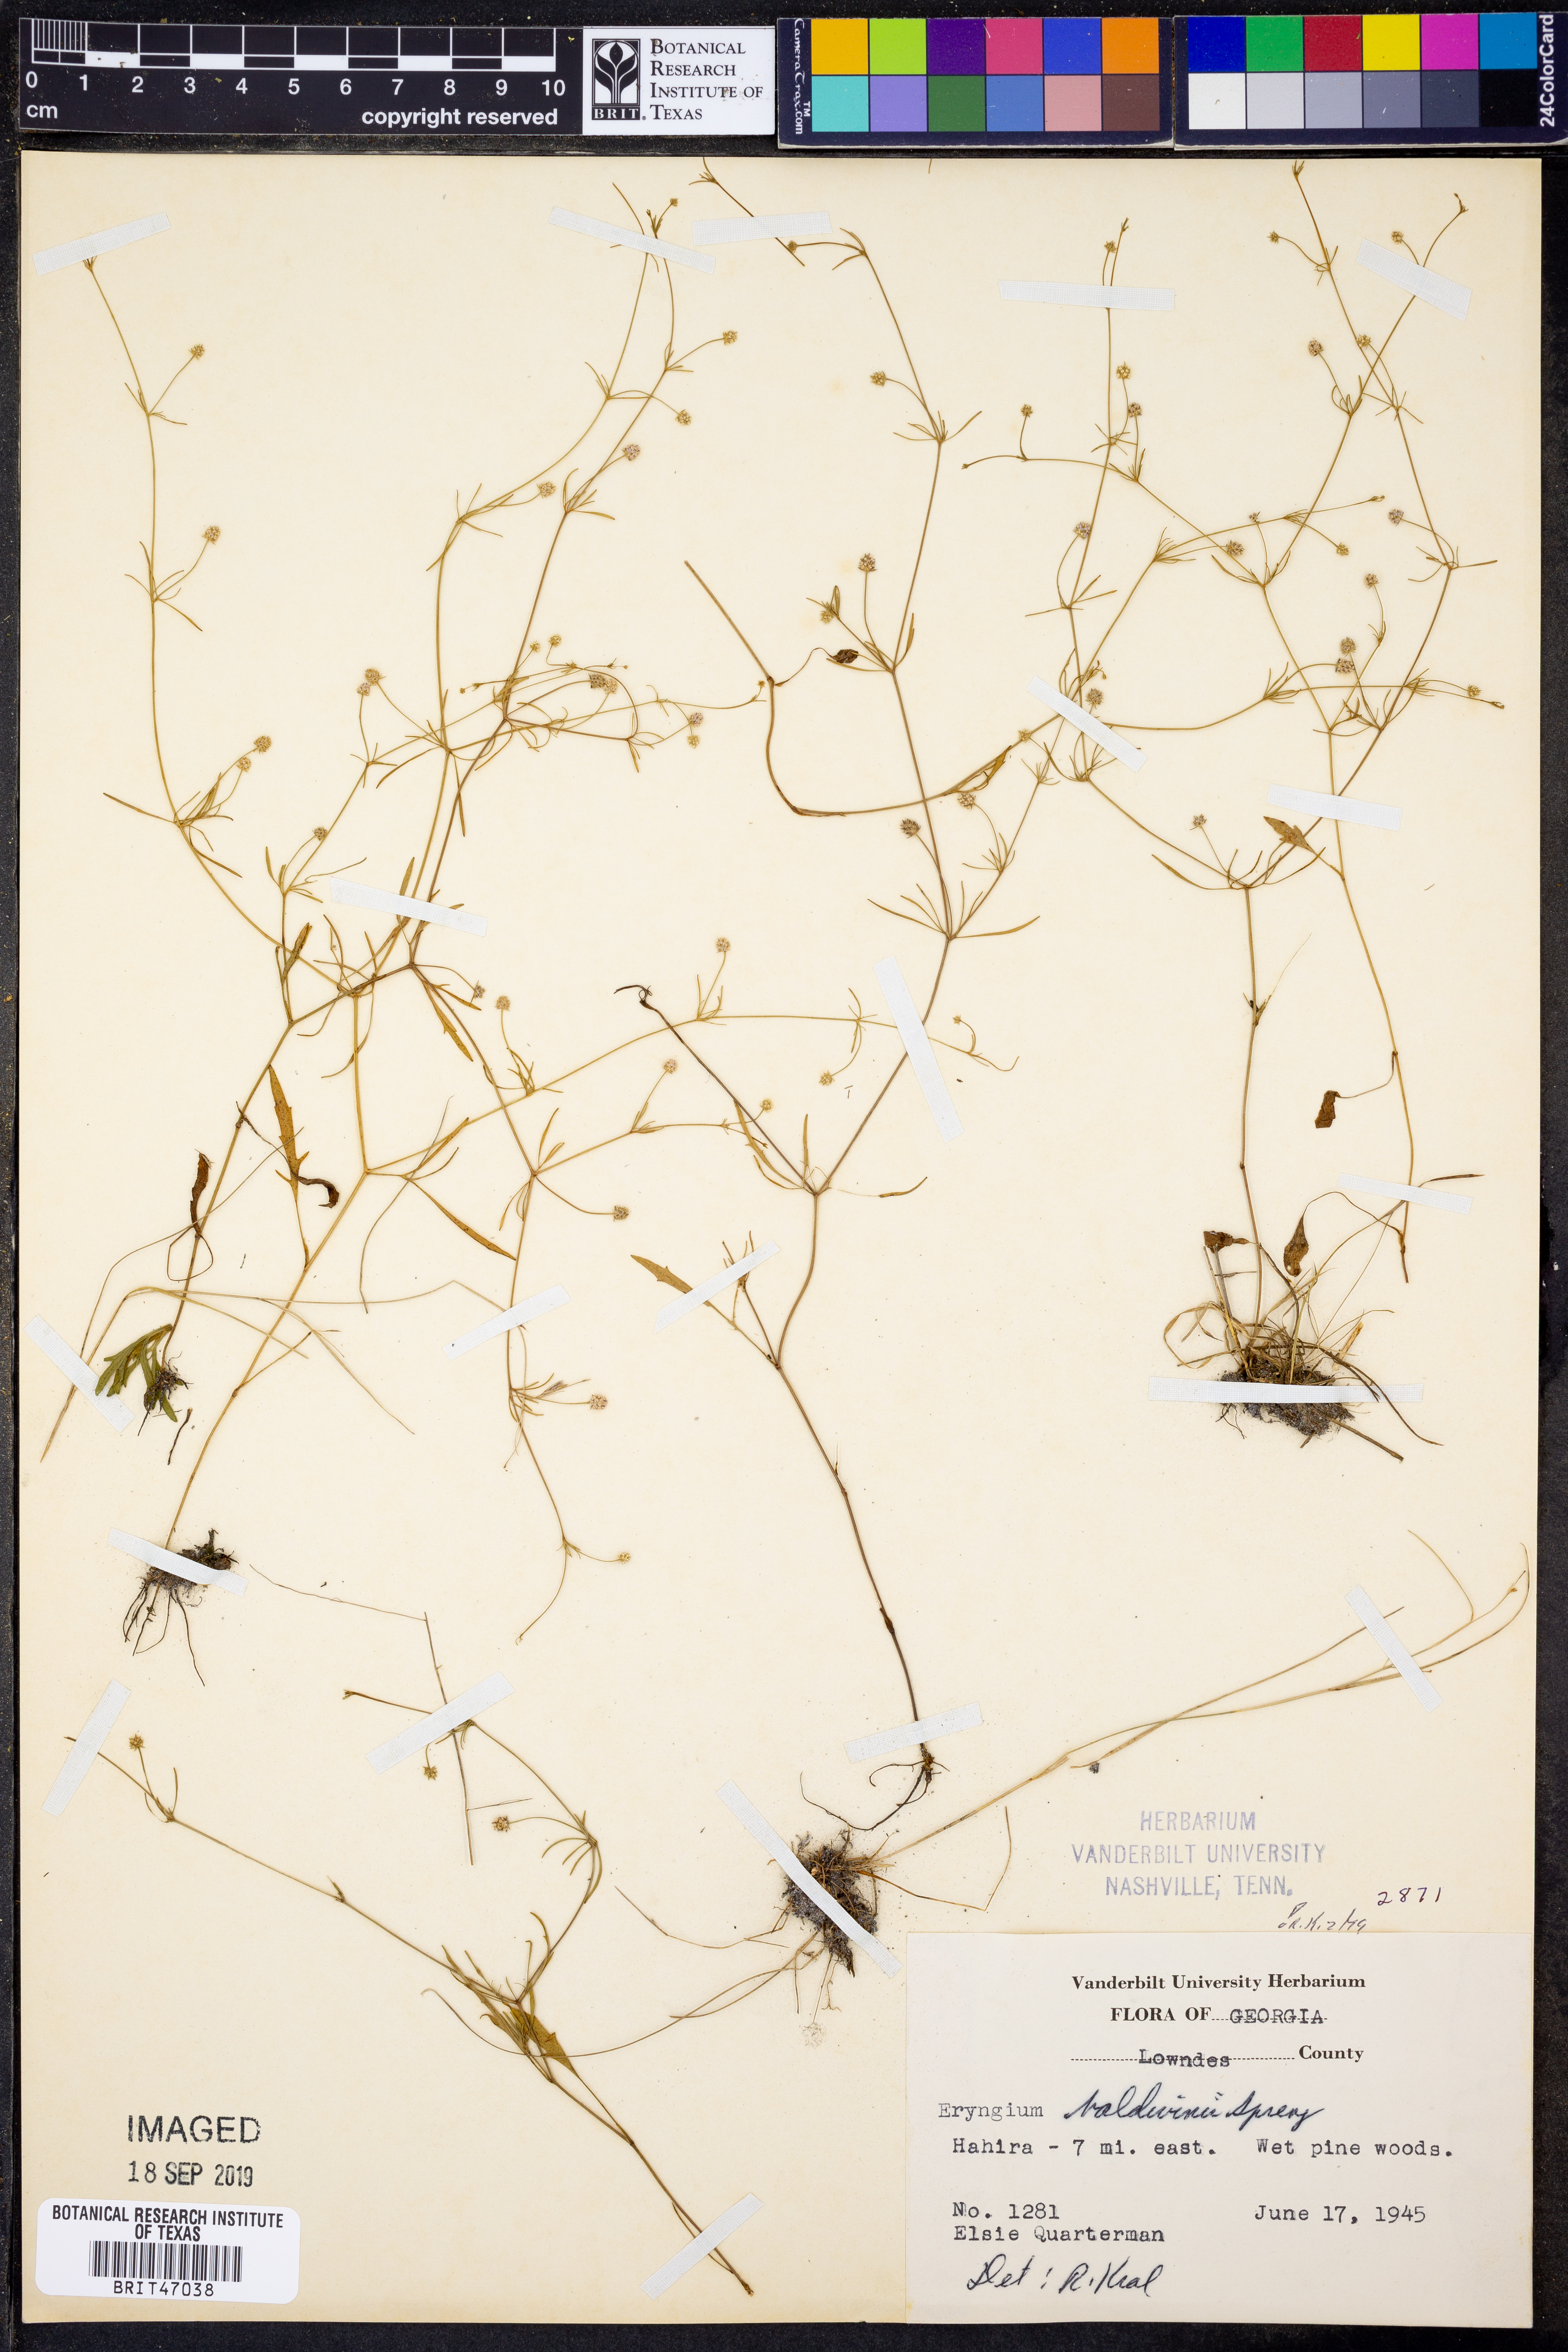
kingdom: Plantae
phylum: Tracheophyta
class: Magnoliopsida
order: Apiales
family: Apiaceae
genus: Eryngium
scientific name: Eryngium baldwinii
